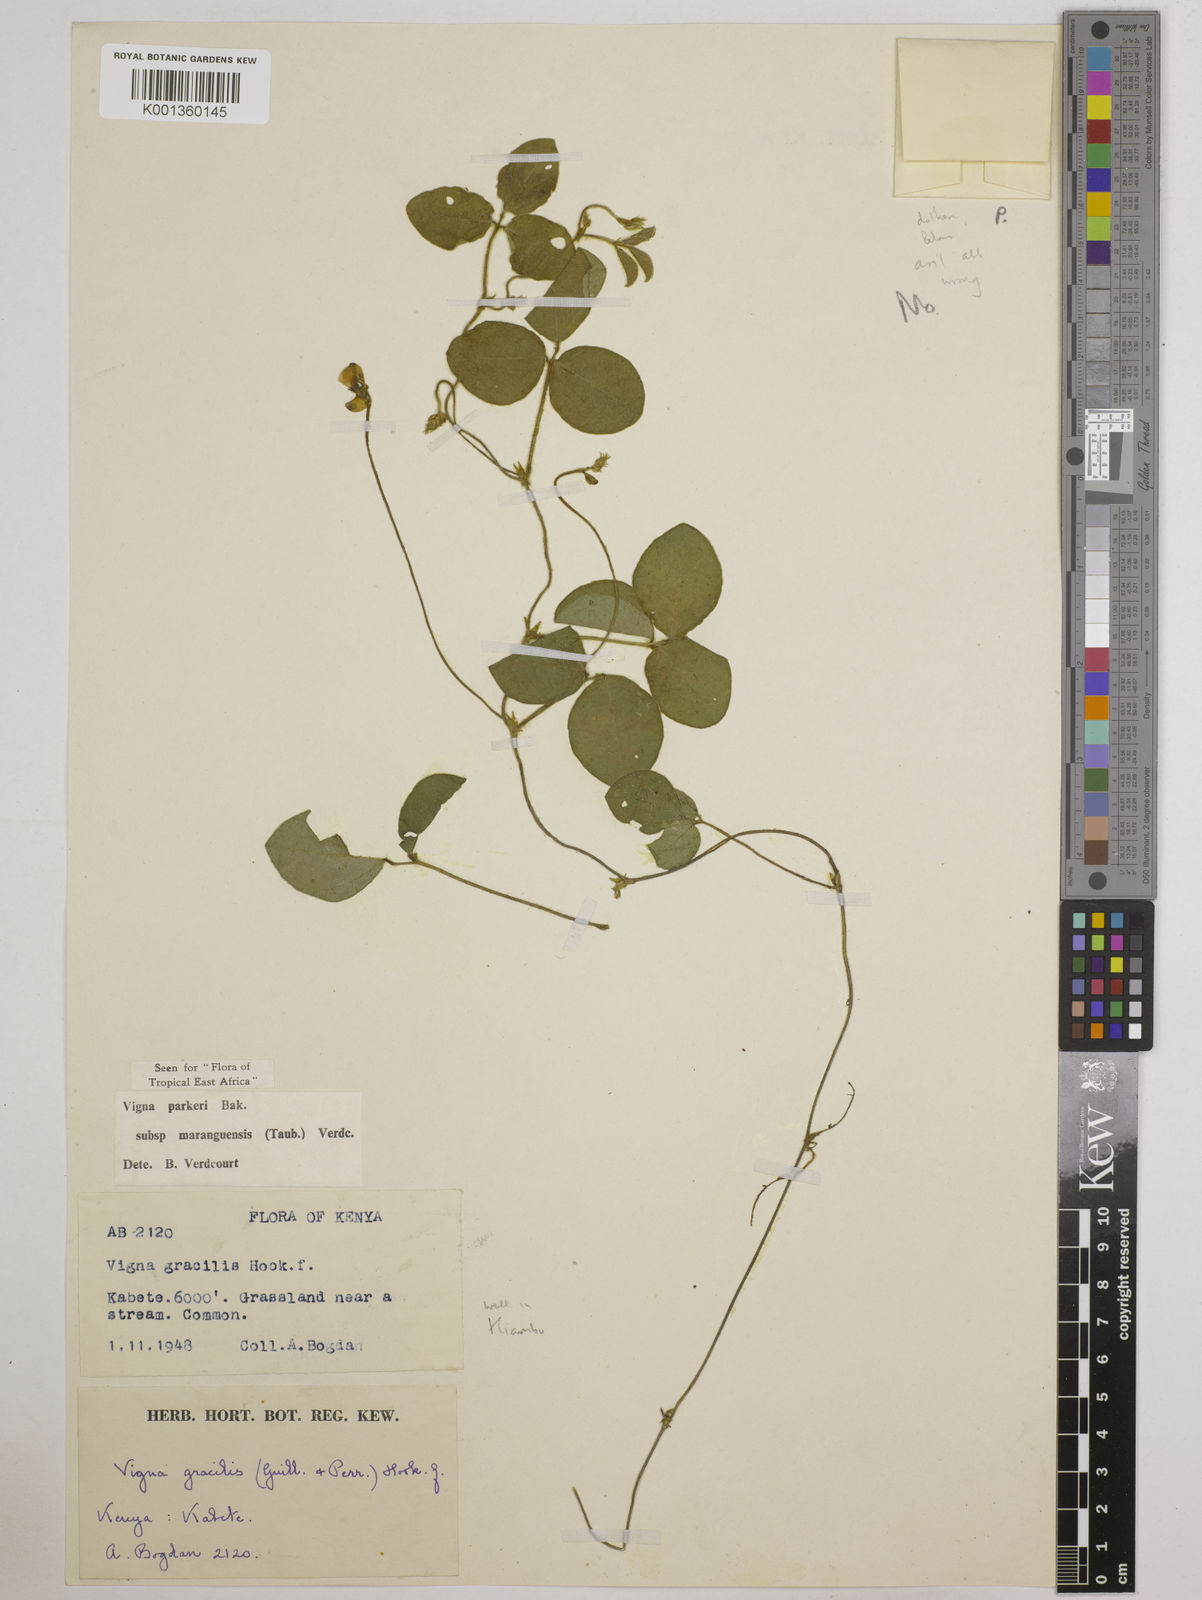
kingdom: Plantae
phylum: Tracheophyta
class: Magnoliopsida
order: Fabales
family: Fabaceae
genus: Vigna
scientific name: Vigna
